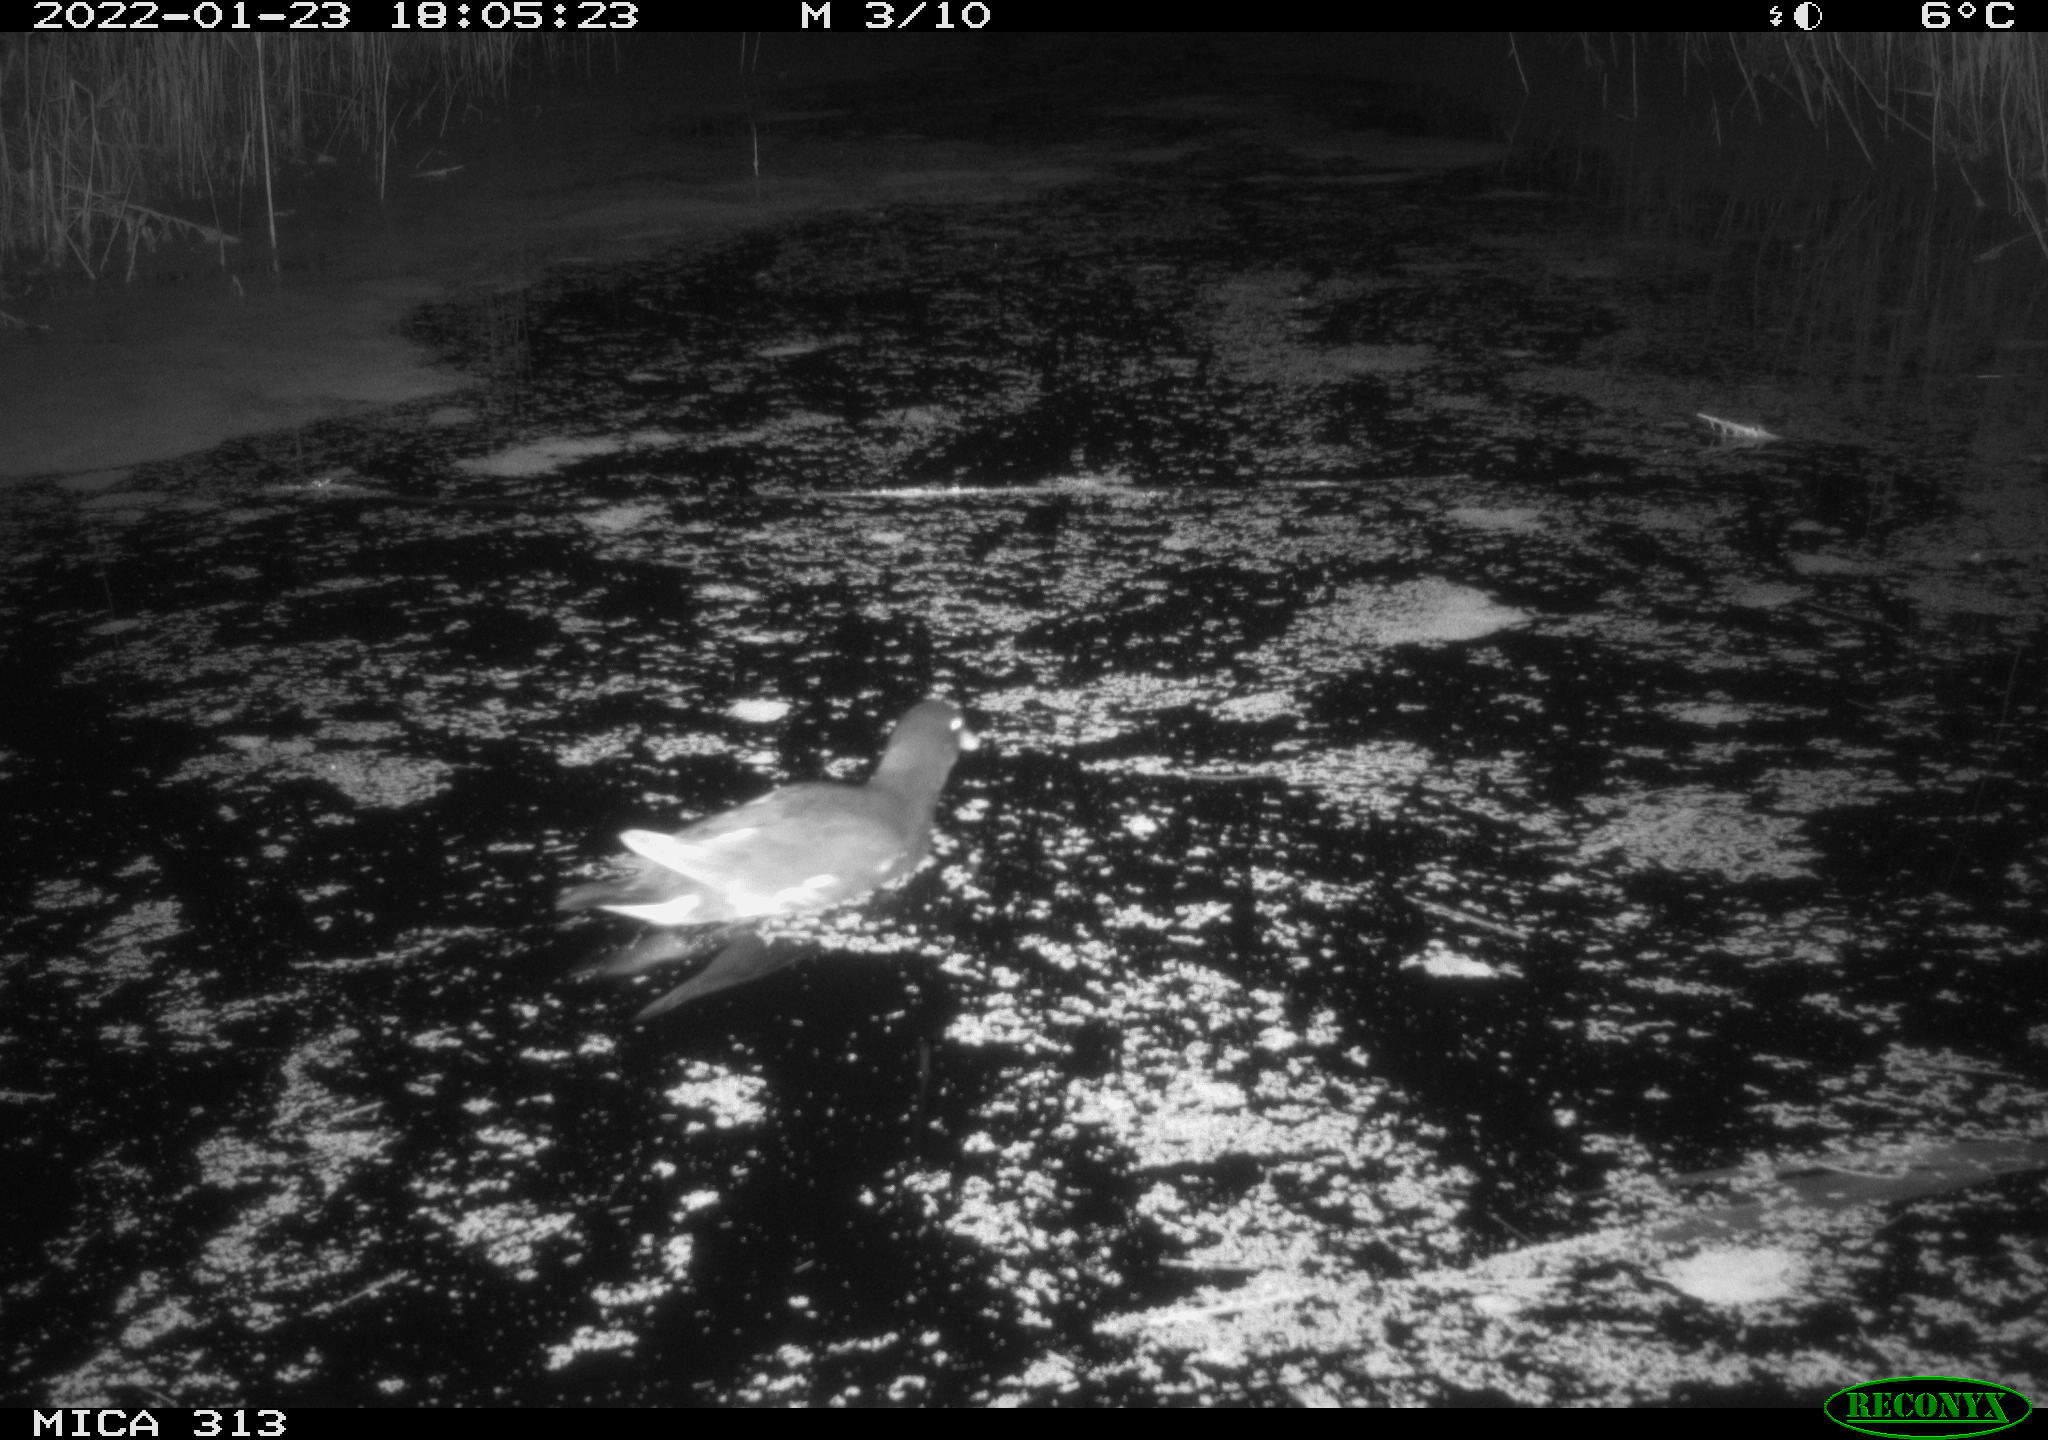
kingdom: Animalia
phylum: Chordata
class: Aves
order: Gruiformes
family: Rallidae
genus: Gallinula
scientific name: Gallinula chloropus
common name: Common moorhen
